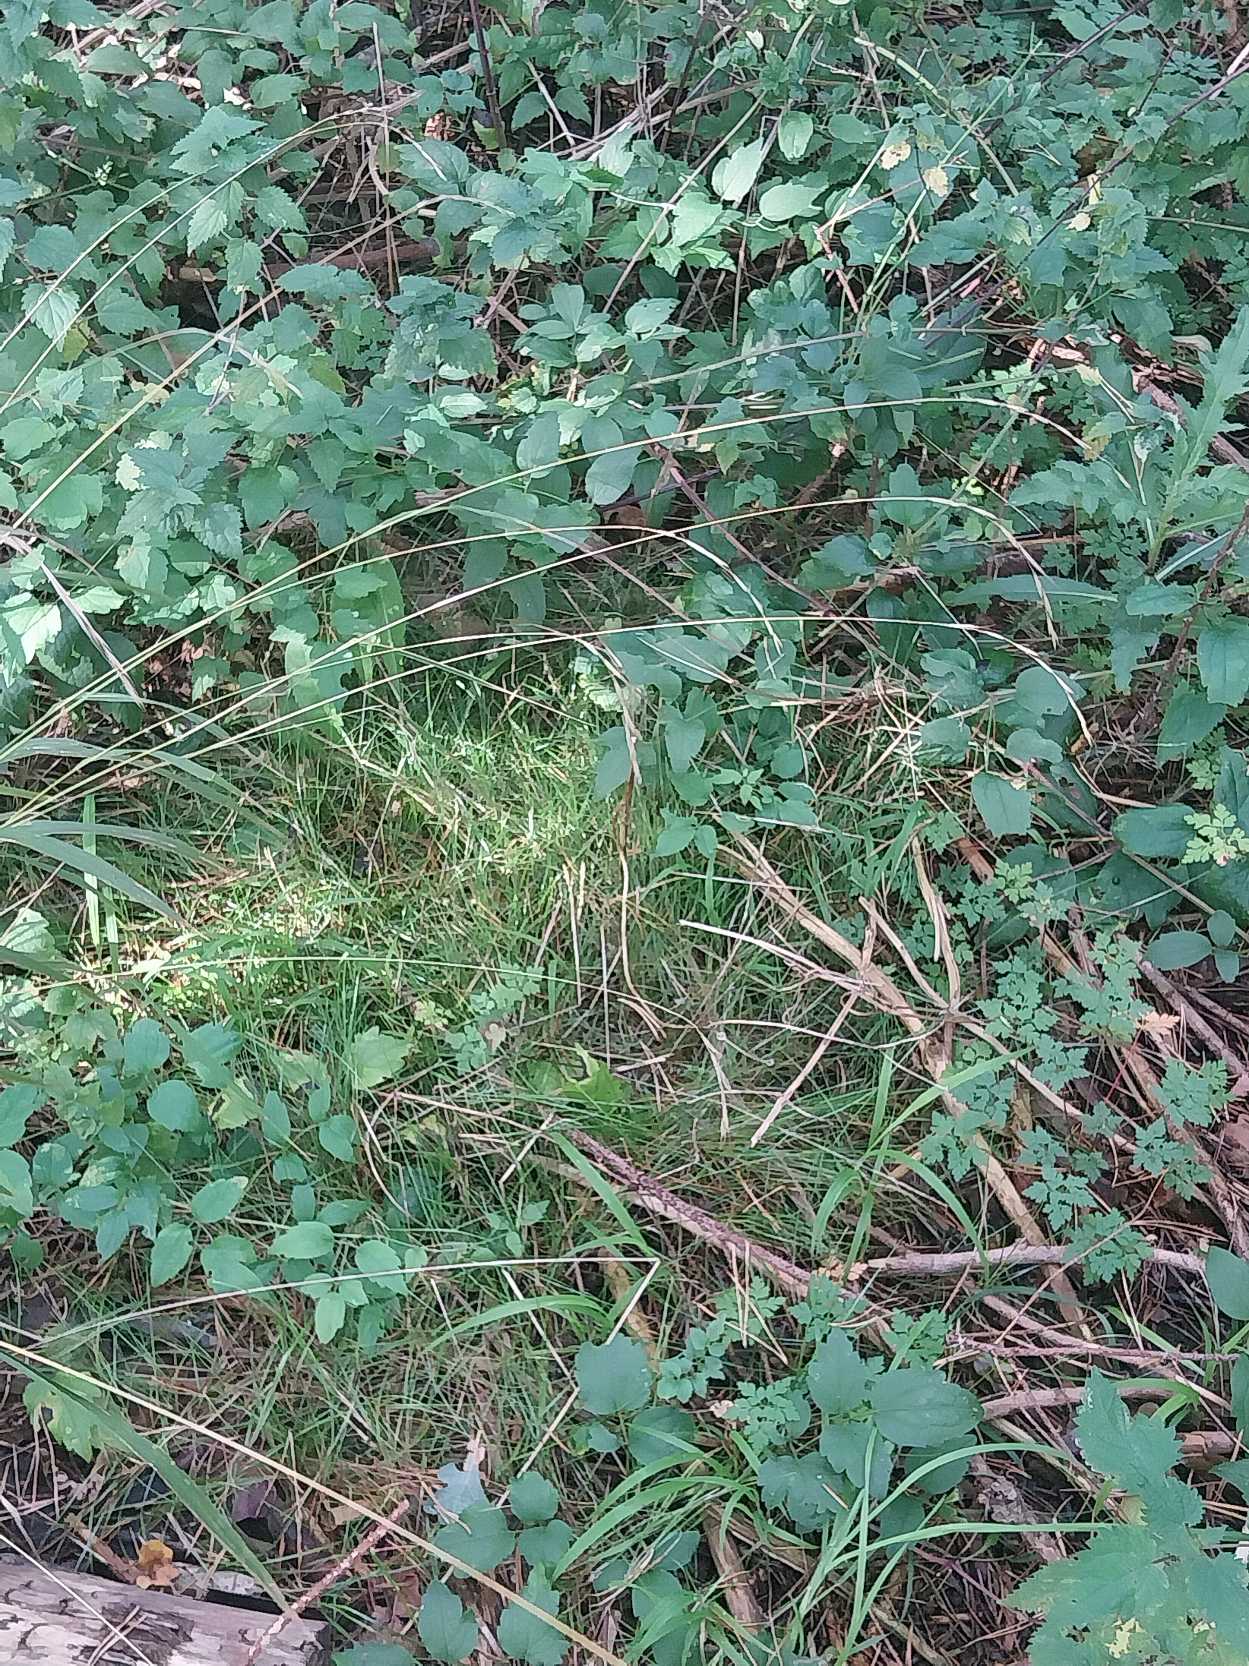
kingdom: Plantae
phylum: Tracheophyta
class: Liliopsida
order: Poales
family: Poaceae
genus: Brachypodium
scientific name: Brachypodium sylvaticum
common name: Skov-stilkaks
